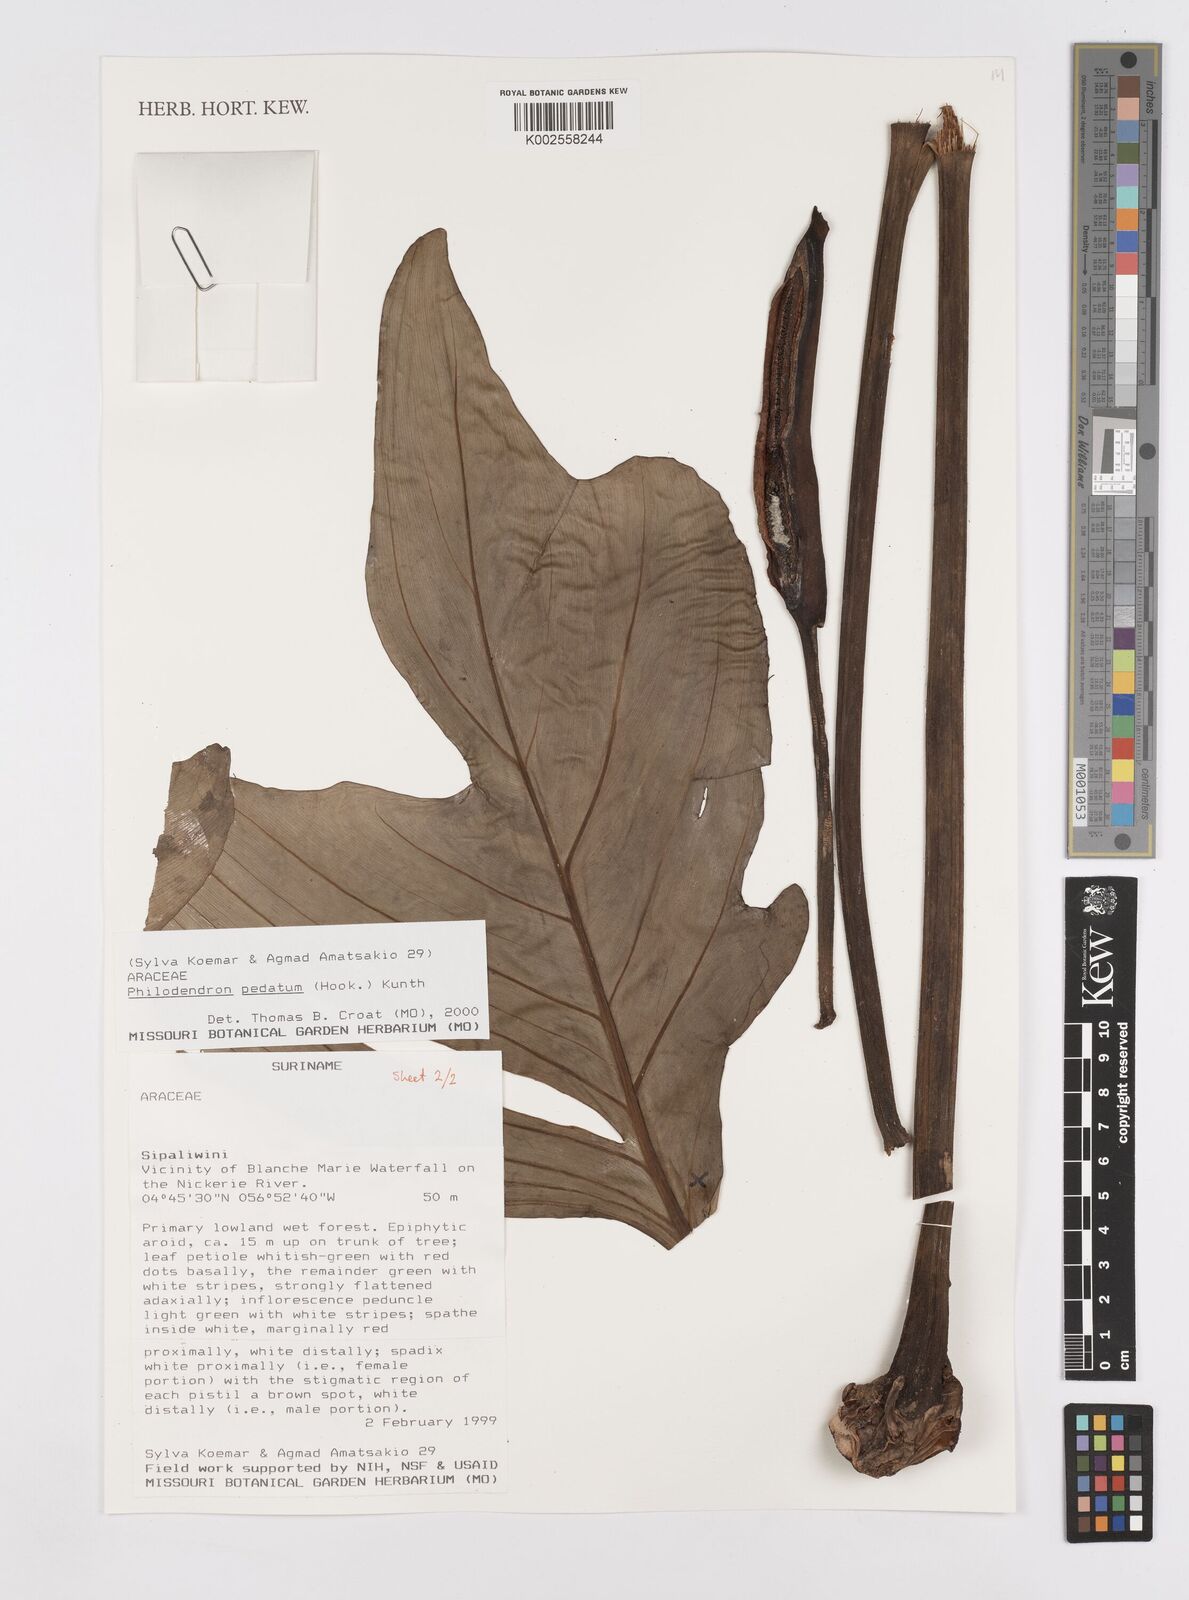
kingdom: Plantae
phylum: Tracheophyta
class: Liliopsida
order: Alismatales
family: Araceae
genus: Philodendron
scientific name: Philodendron pedatum
